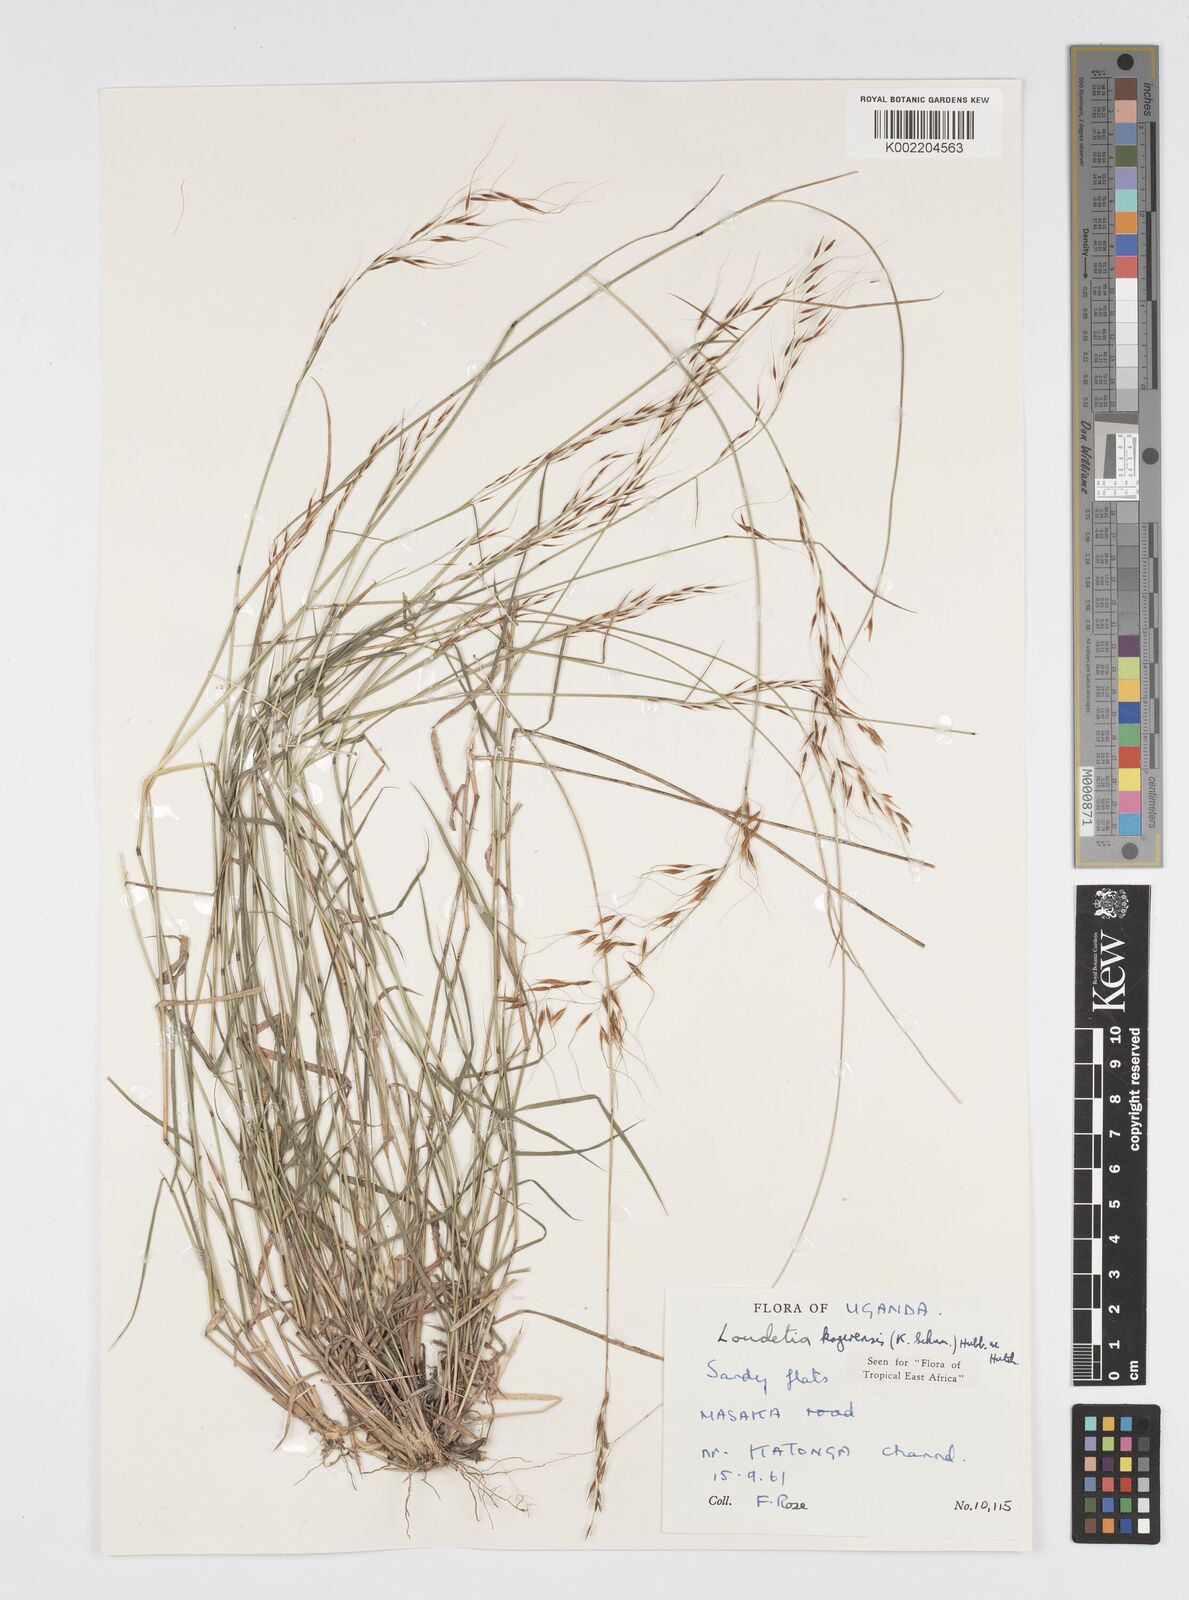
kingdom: Plantae
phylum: Tracheophyta
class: Liliopsida
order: Poales
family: Poaceae
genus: Loudetia
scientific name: Loudetia kagerensis
